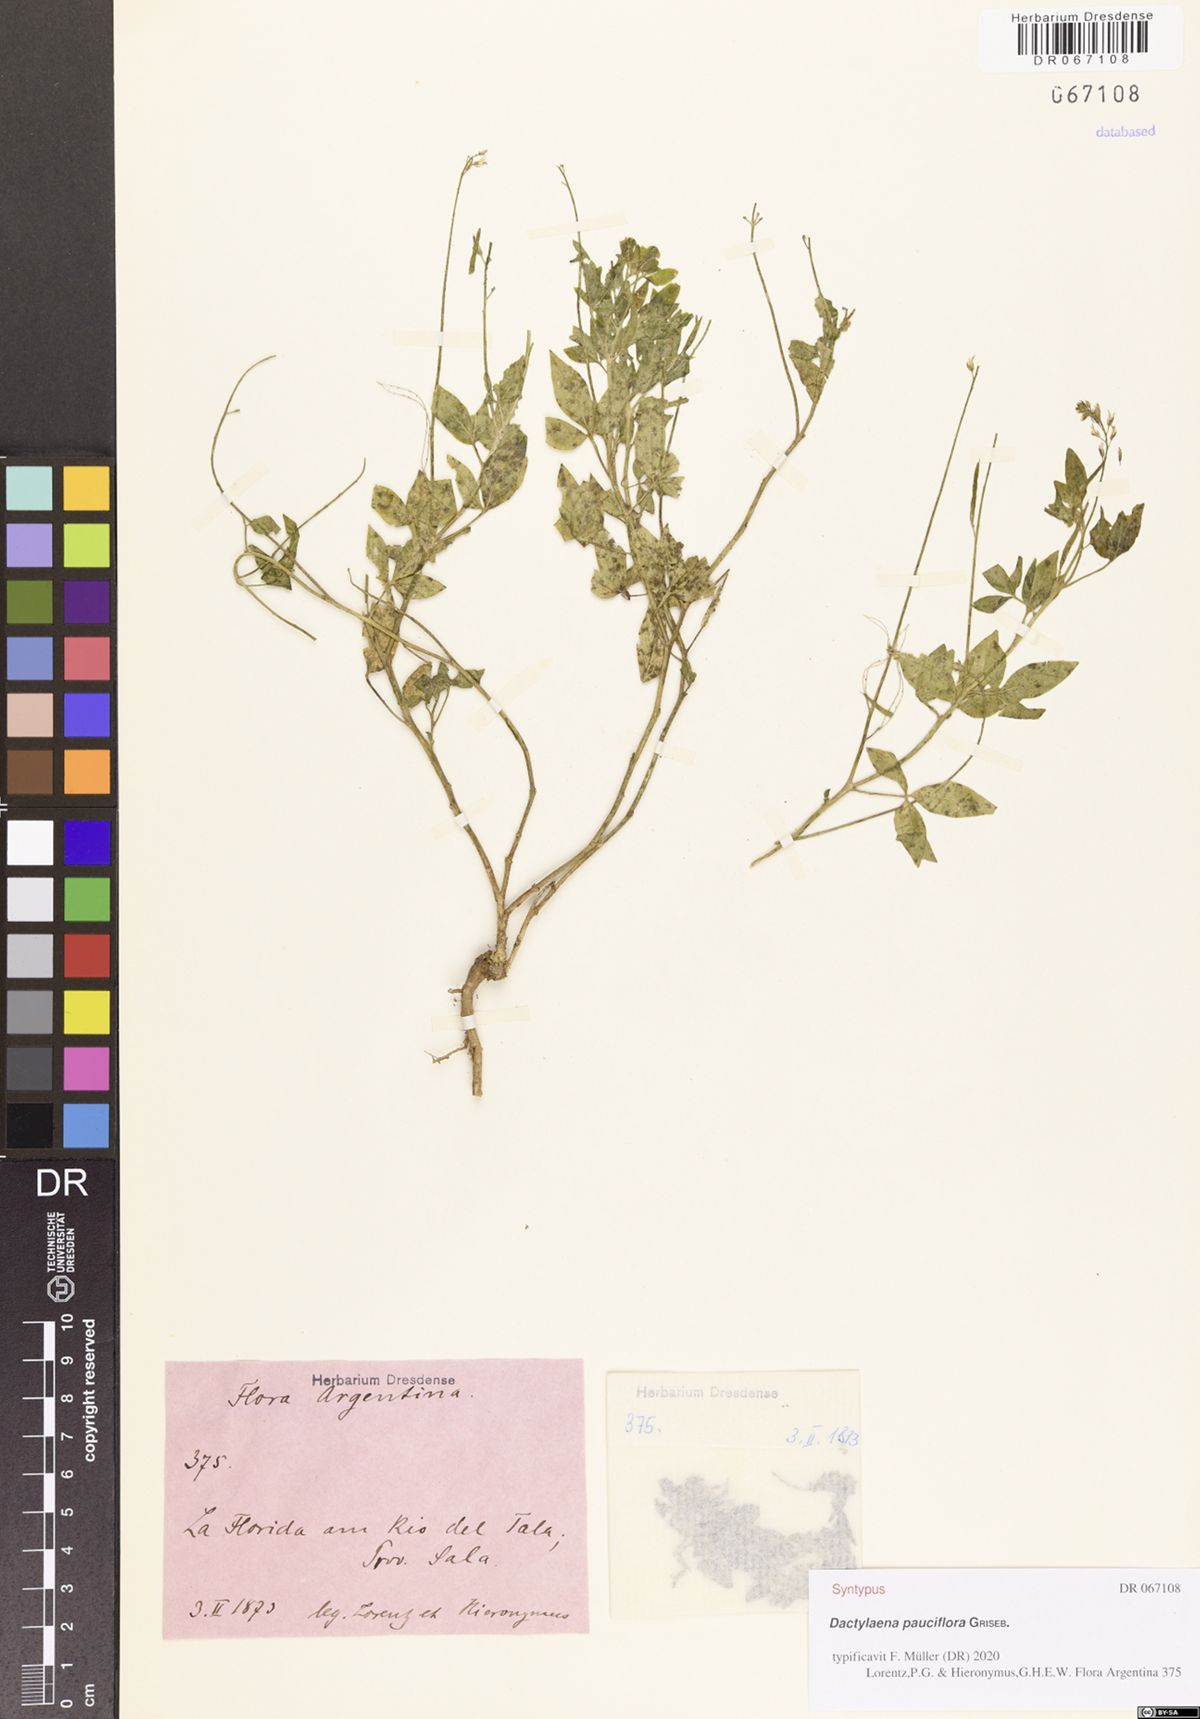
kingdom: Plantae
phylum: Tracheophyta
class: Magnoliopsida
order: Brassicales
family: Cleomaceae
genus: Dactylaena
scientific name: Dactylaena pauciflora
